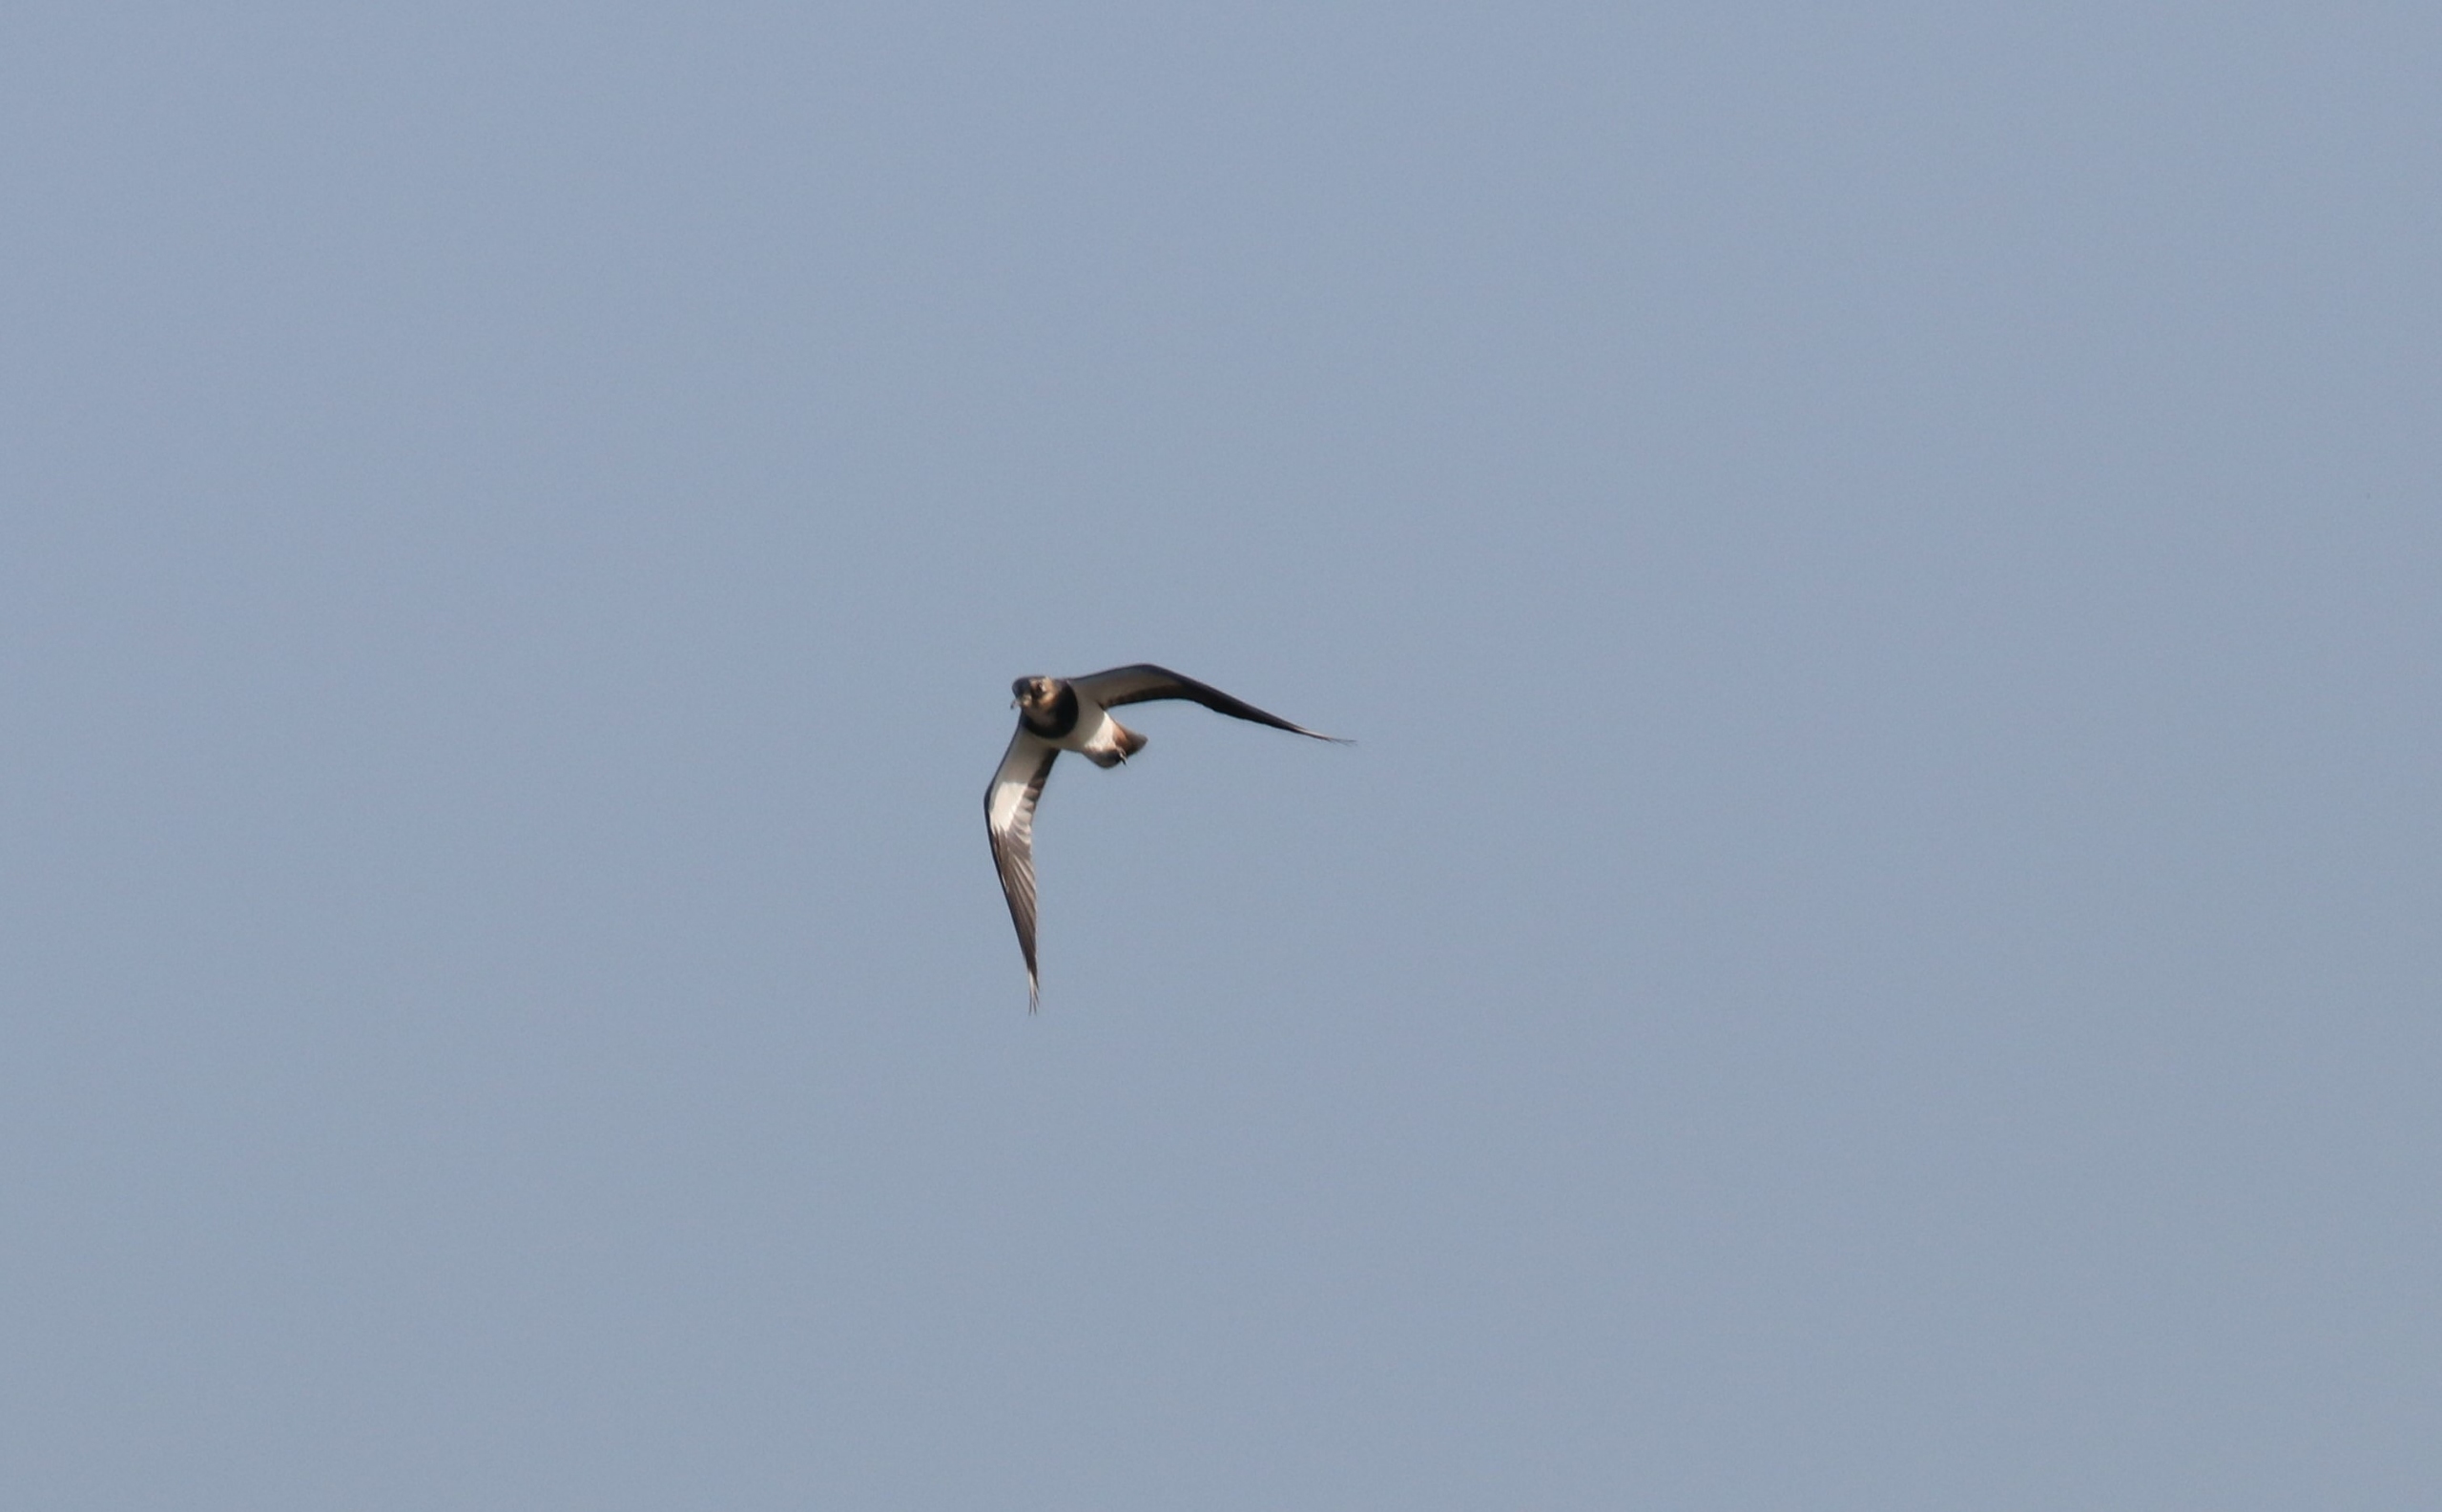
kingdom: Animalia
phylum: Chordata
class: Aves
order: Charadriiformes
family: Charadriidae
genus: Vanellus
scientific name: Vanellus vanellus
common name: Vibe
